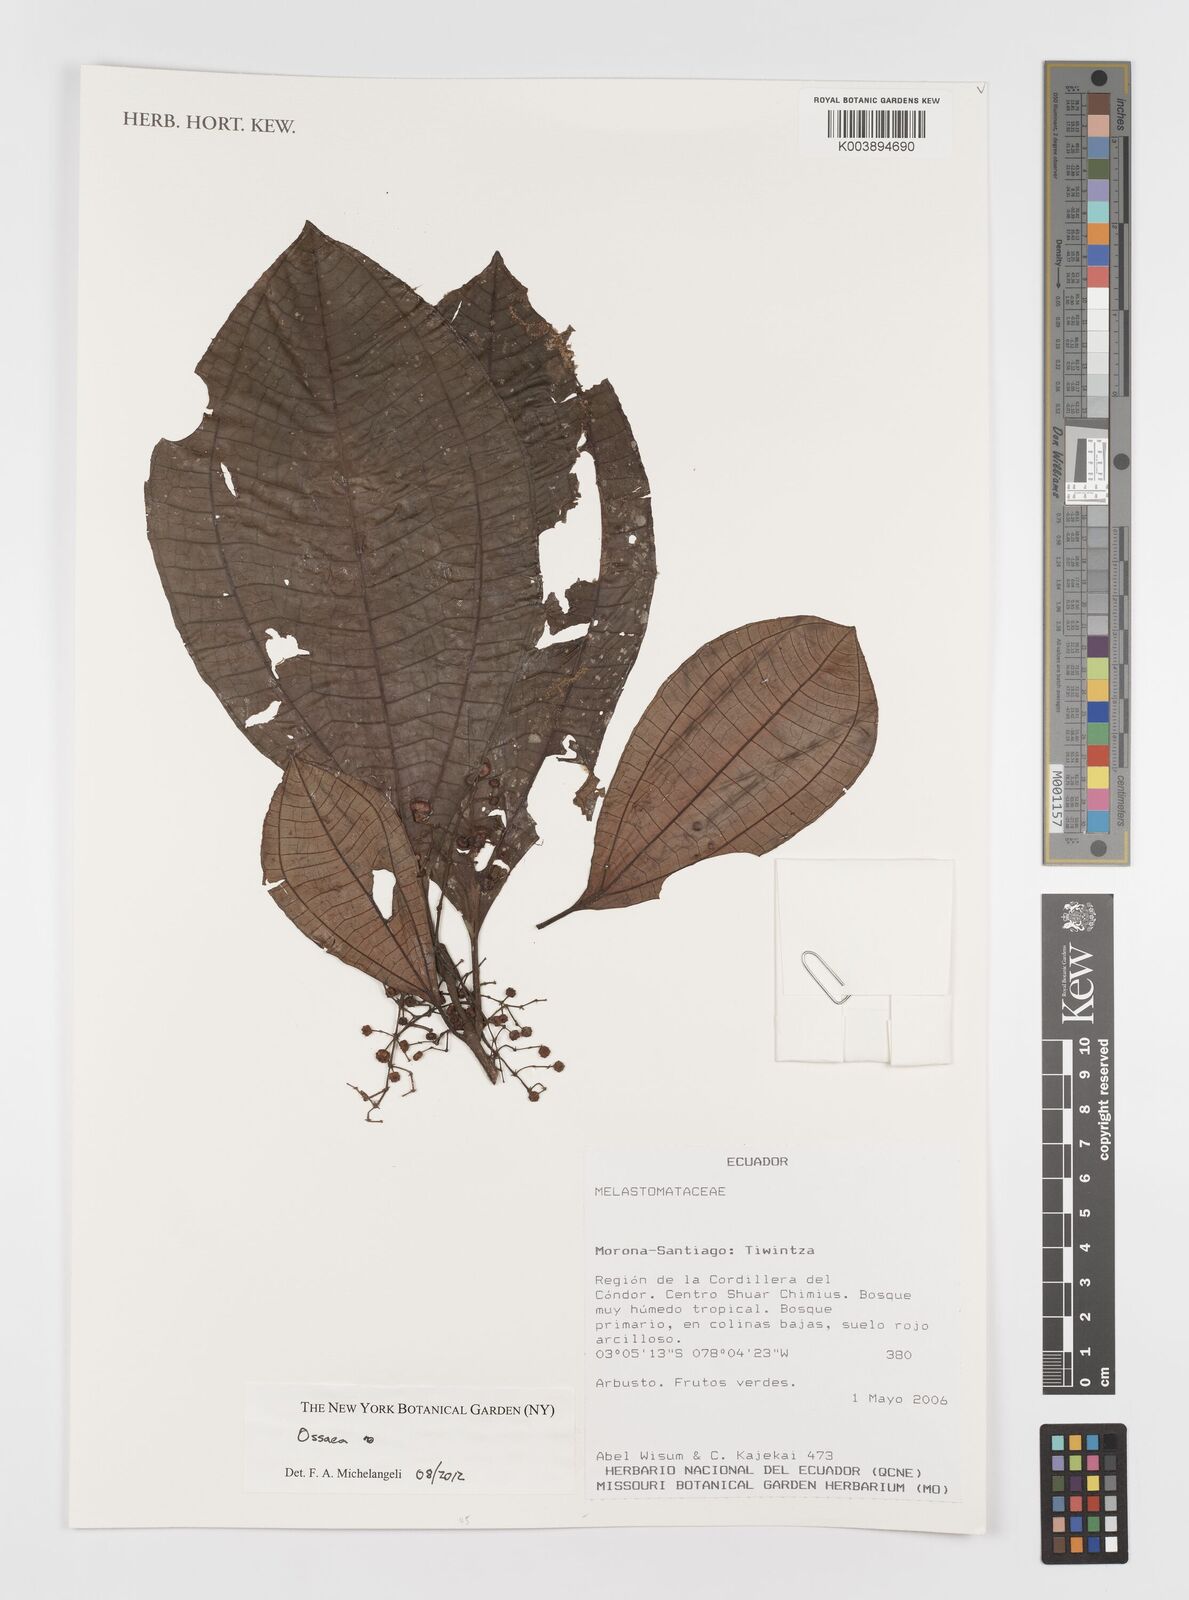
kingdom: Plantae
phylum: Tracheophyta
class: Magnoliopsida
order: Myrtales
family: Melastomataceae
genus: Ossaea
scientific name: Ossaea
